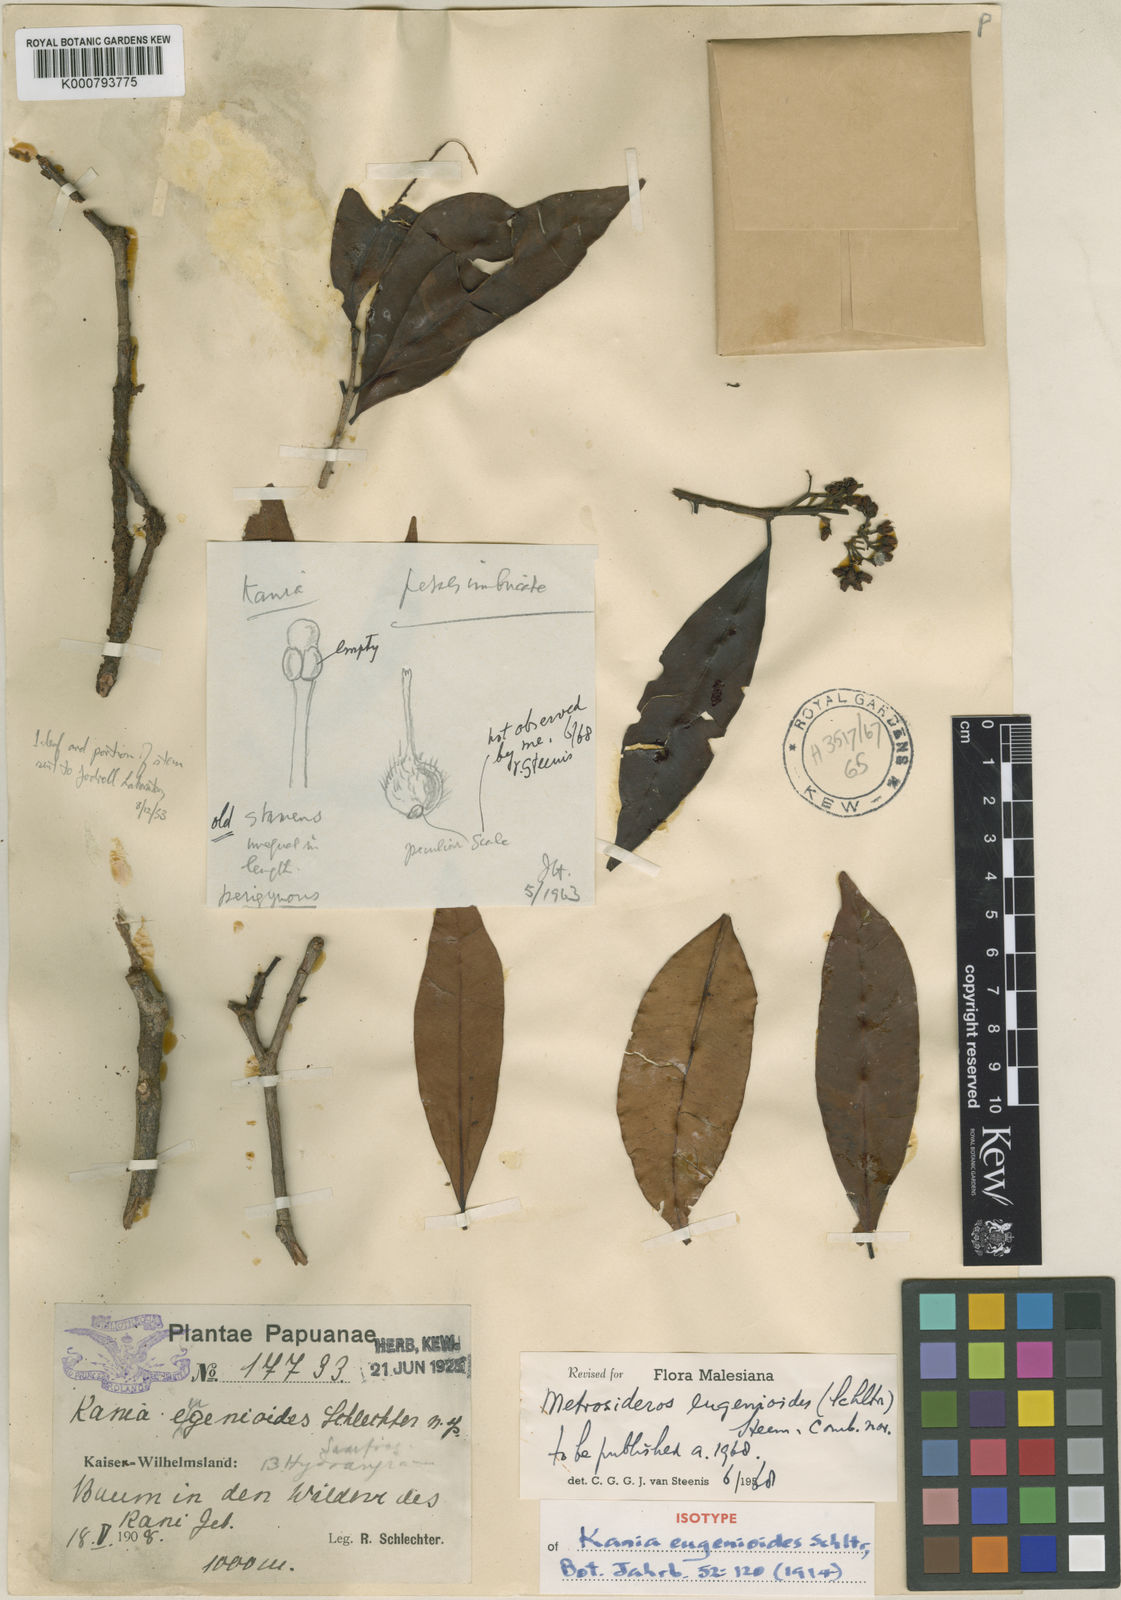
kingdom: Plantae
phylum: Tracheophyta
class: Magnoliopsida
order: Myrtales
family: Myrtaceae
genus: Kania
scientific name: Kania eugenioides
